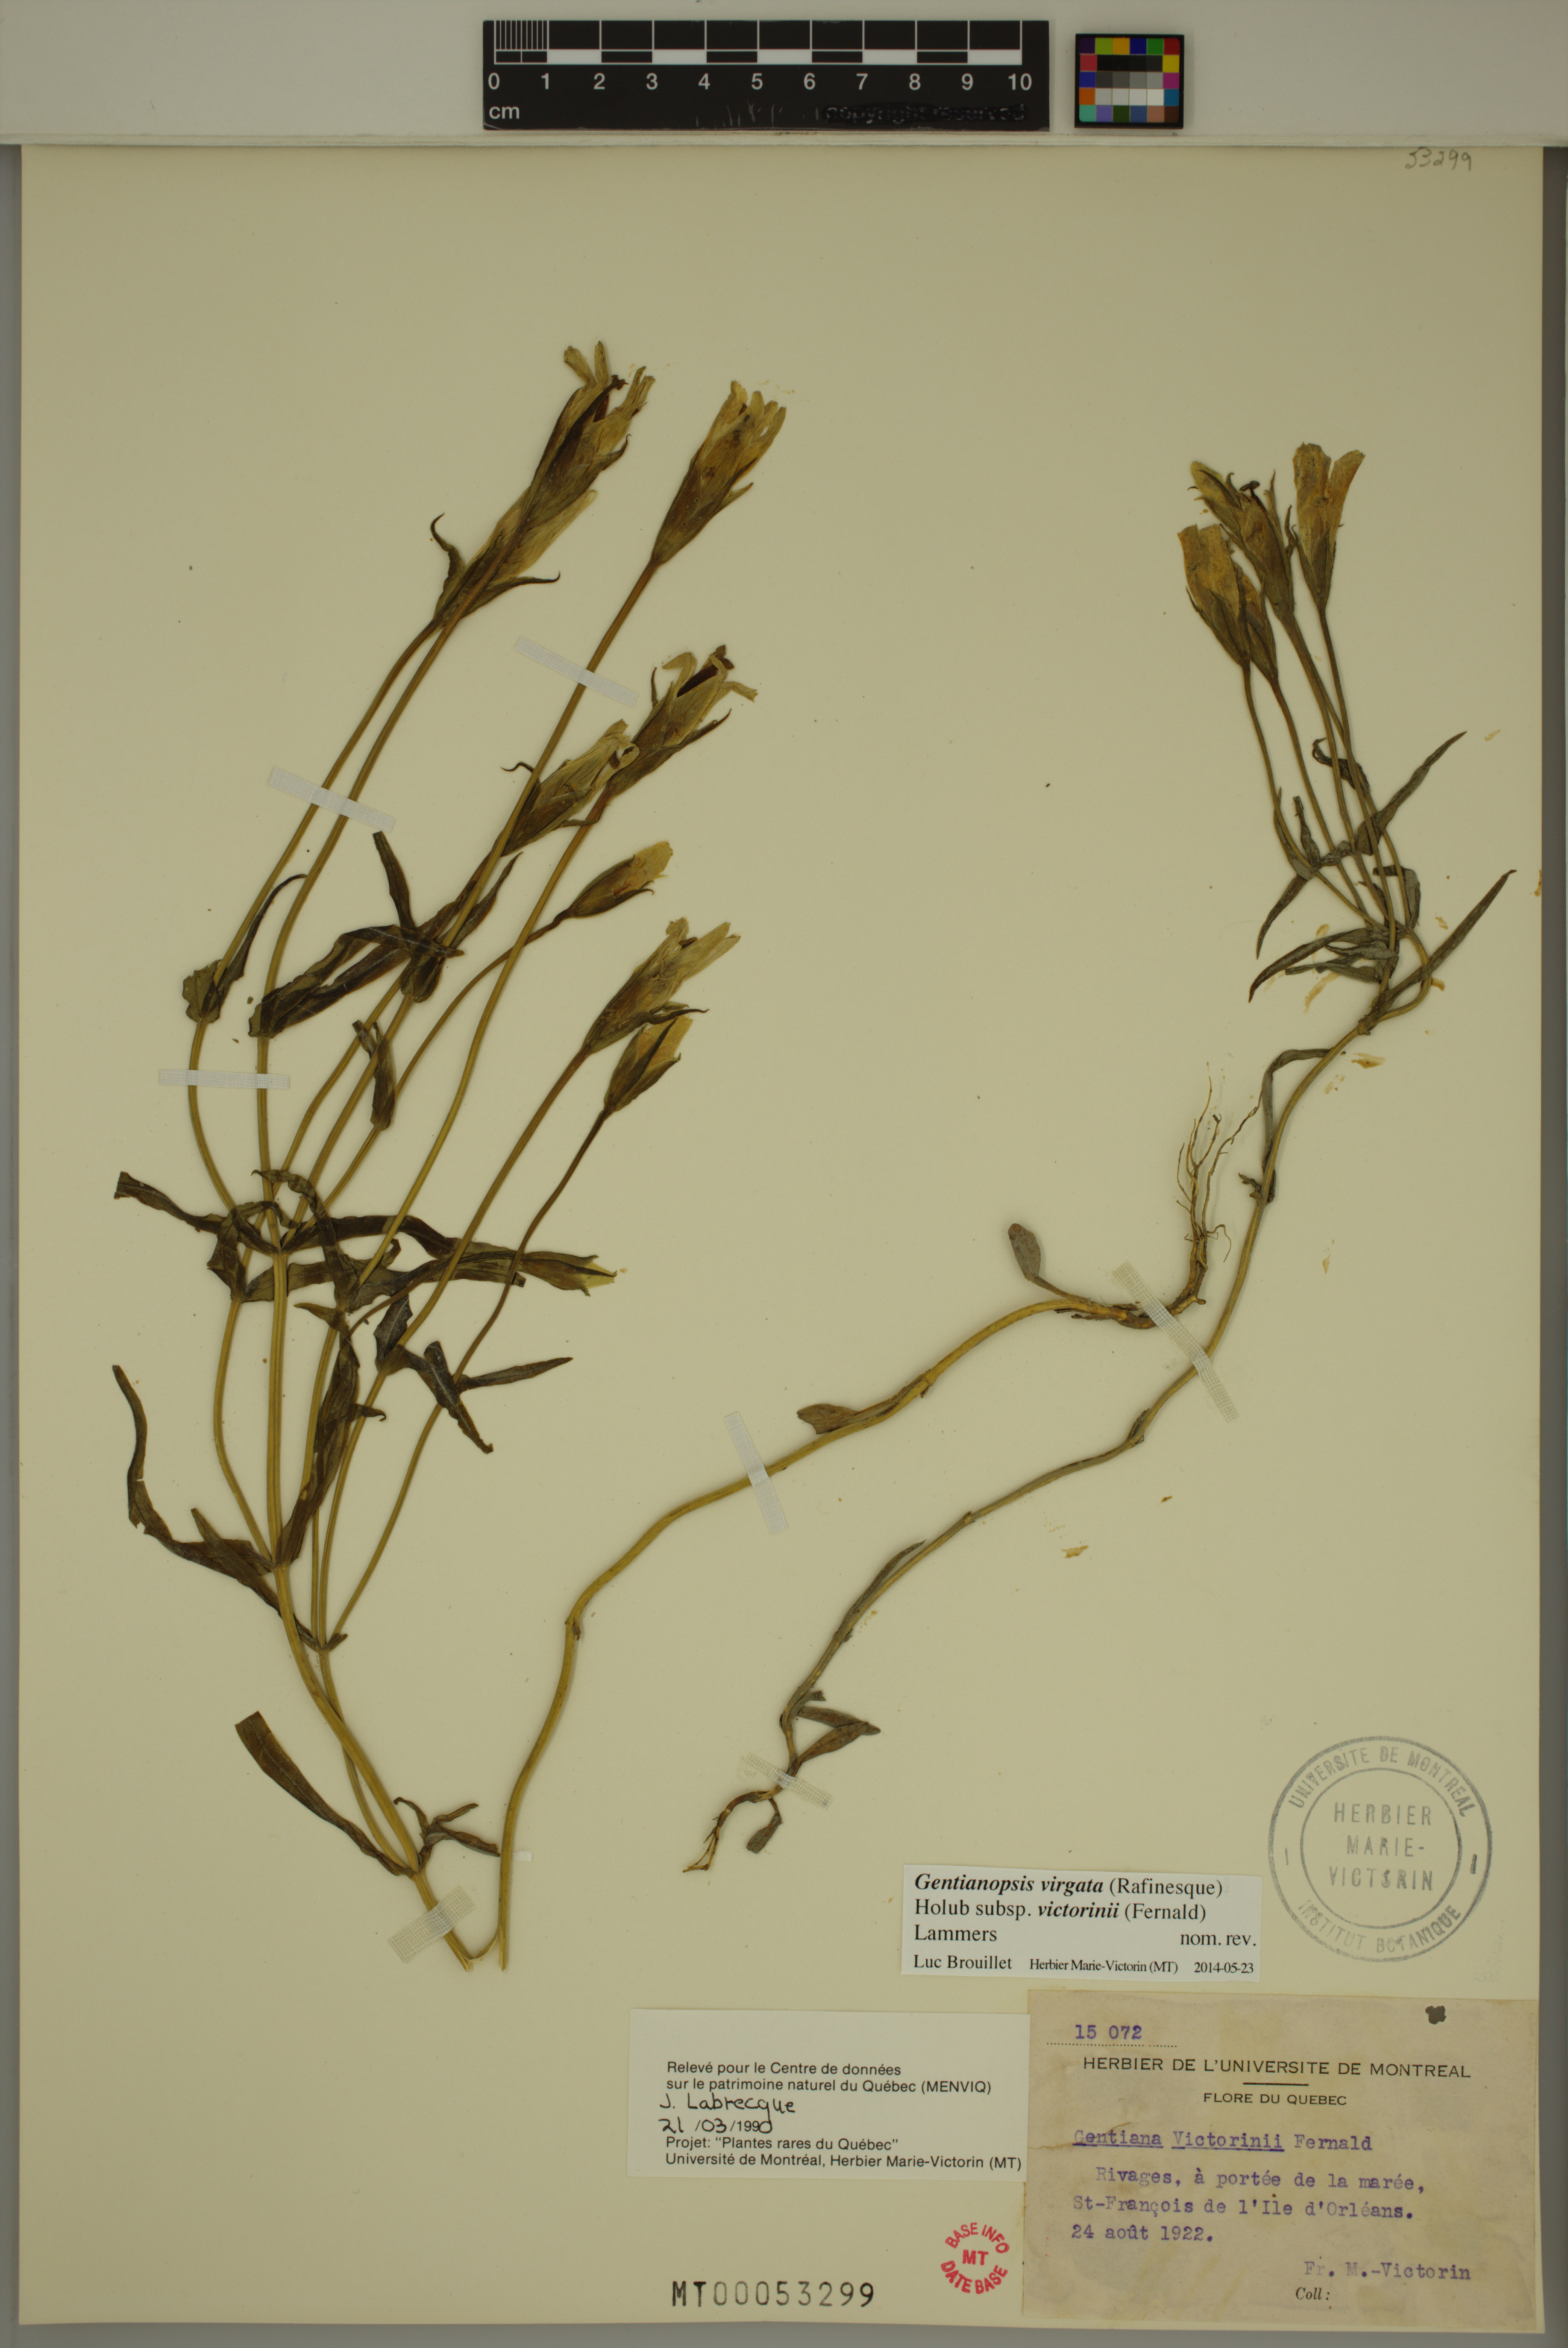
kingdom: Plantae
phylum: Tracheophyta
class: Magnoliopsida
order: Gentianales
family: Gentianaceae
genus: Gentianopsis
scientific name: Gentianopsis victorinii
